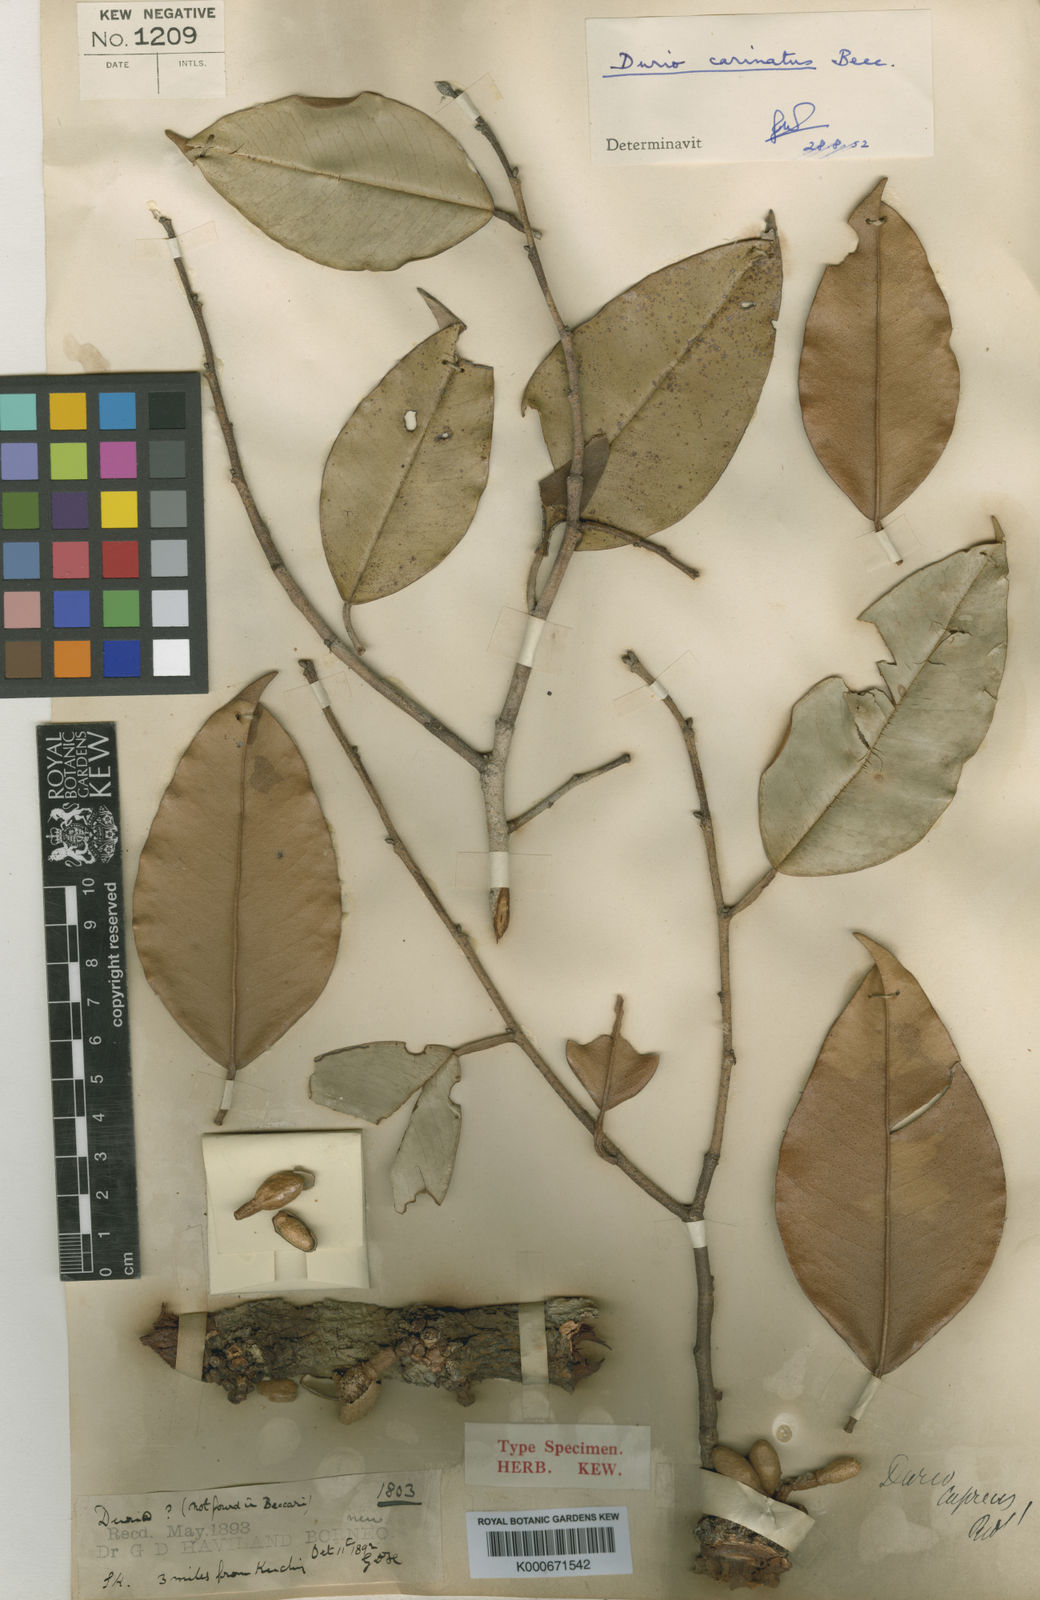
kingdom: Plantae
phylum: Tracheophyta
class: Magnoliopsida
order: Malvales
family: Malvaceae
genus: Durio
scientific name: Durio carinatus
